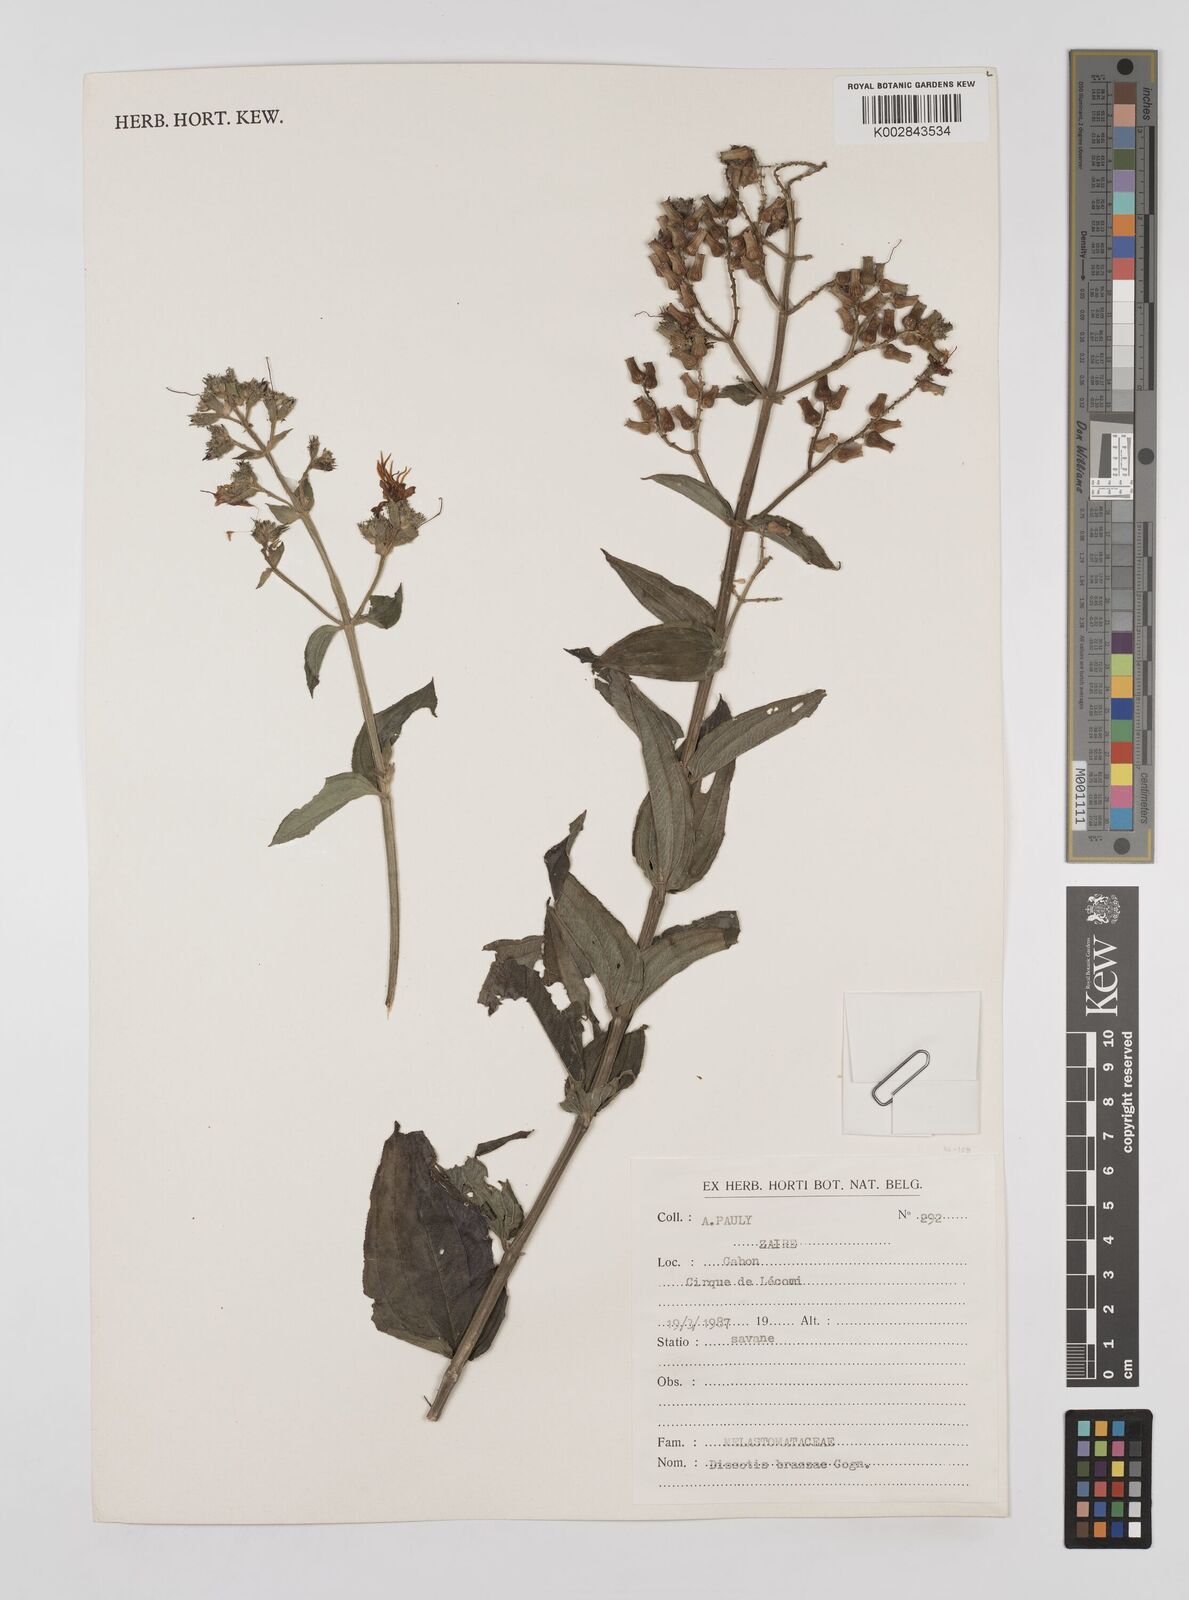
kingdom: Plantae
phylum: Tracheophyta
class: Magnoliopsida
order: Myrtales
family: Melastomataceae
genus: Dupineta
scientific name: Dupineta brazzae
